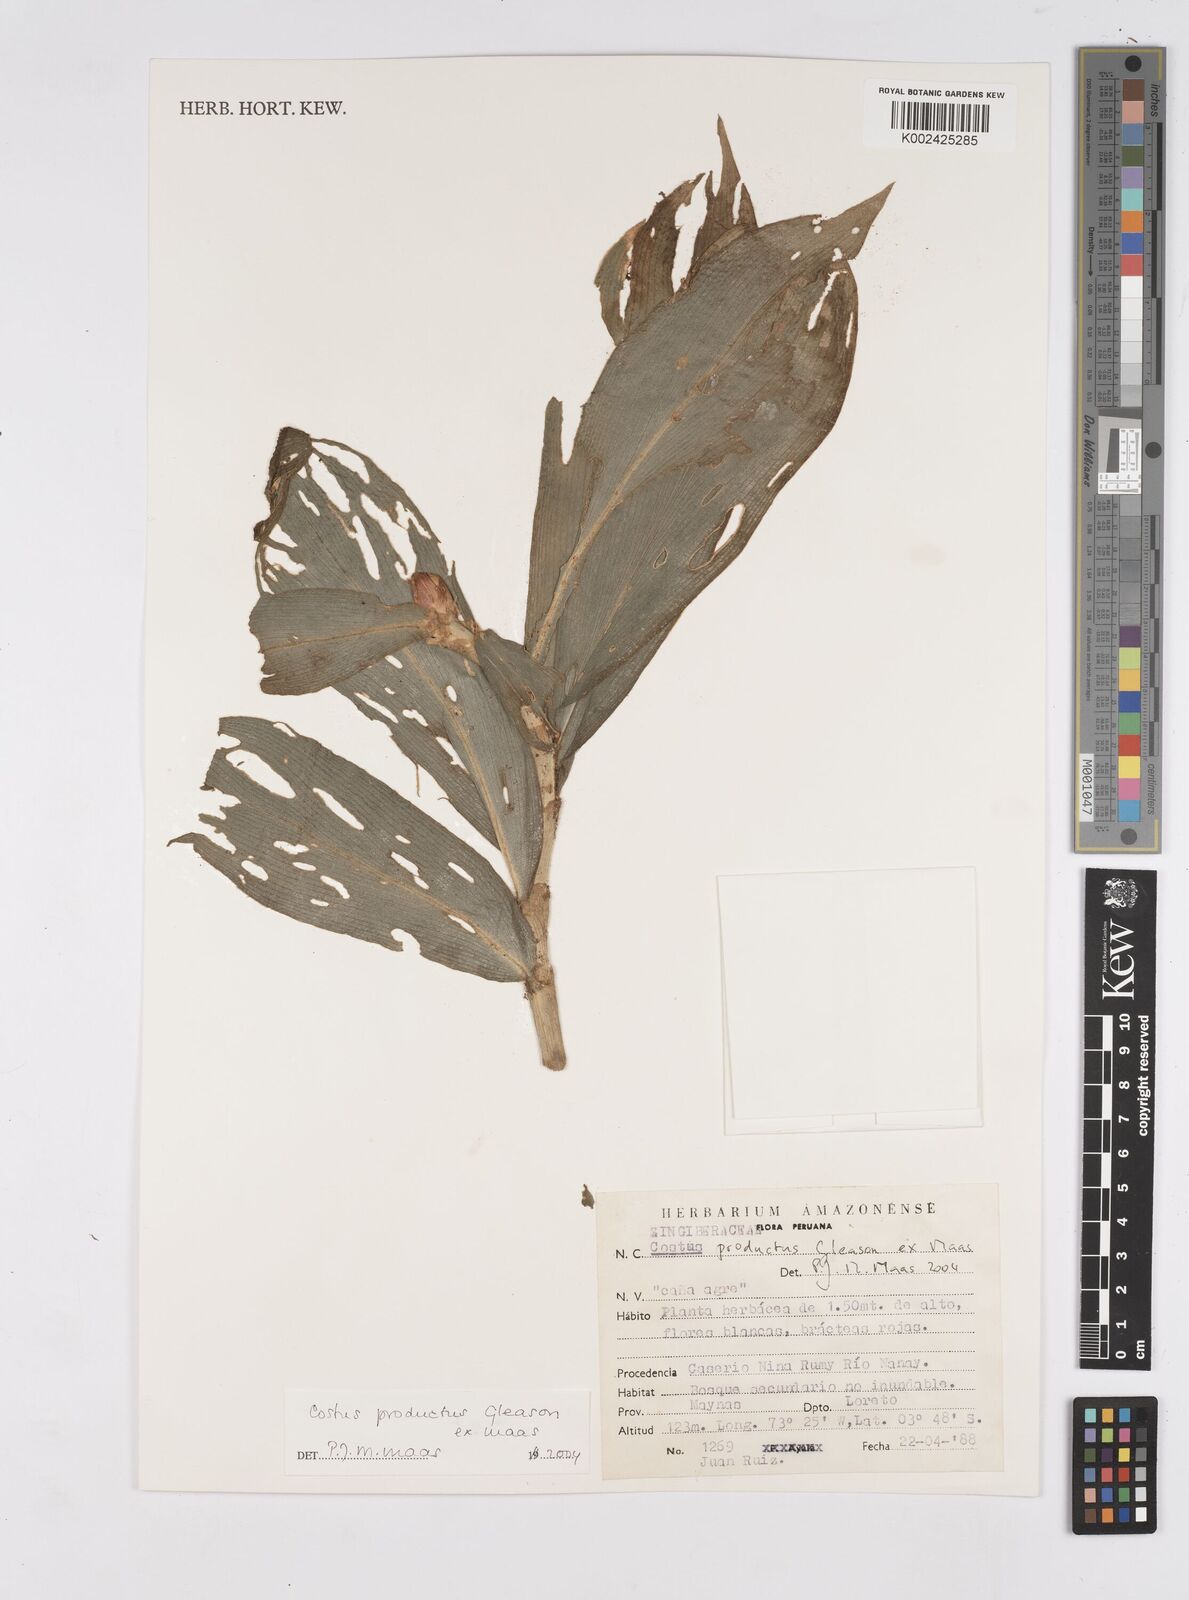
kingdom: Plantae
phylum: Tracheophyta
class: Liliopsida
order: Zingiberales
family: Costaceae
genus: Costus
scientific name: Costus productus
